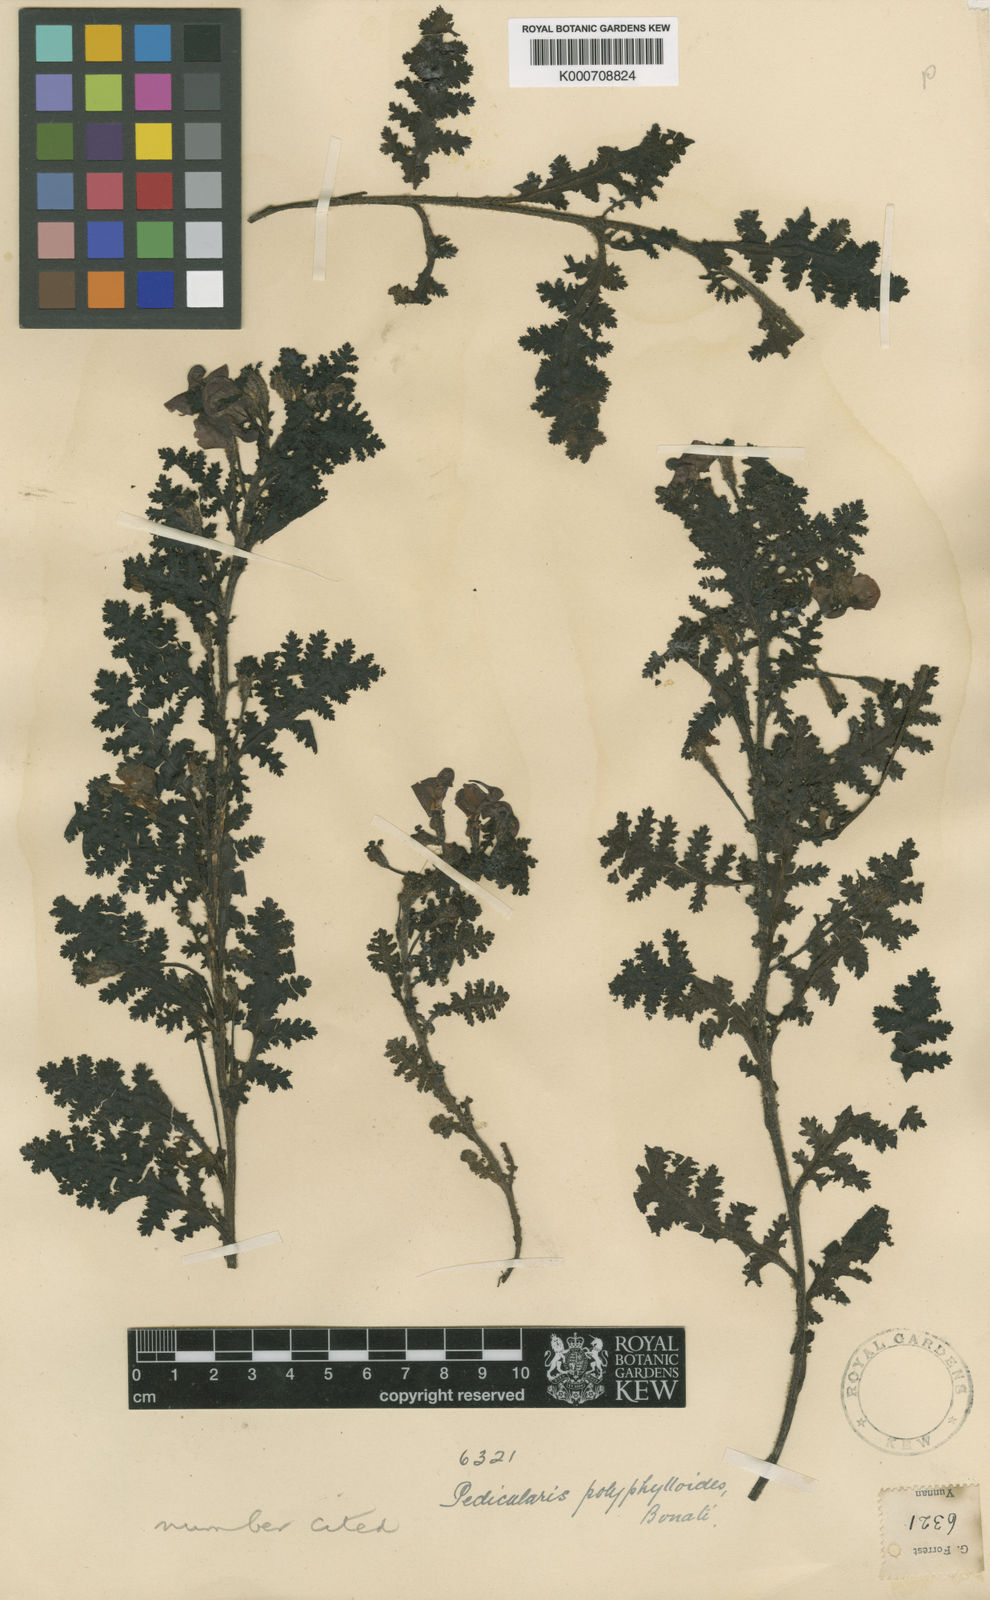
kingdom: Plantae
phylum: Tracheophyta
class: Magnoliopsida
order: Lamiales
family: Orobanchaceae
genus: Pedicularis
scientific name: Pedicularis gruina
